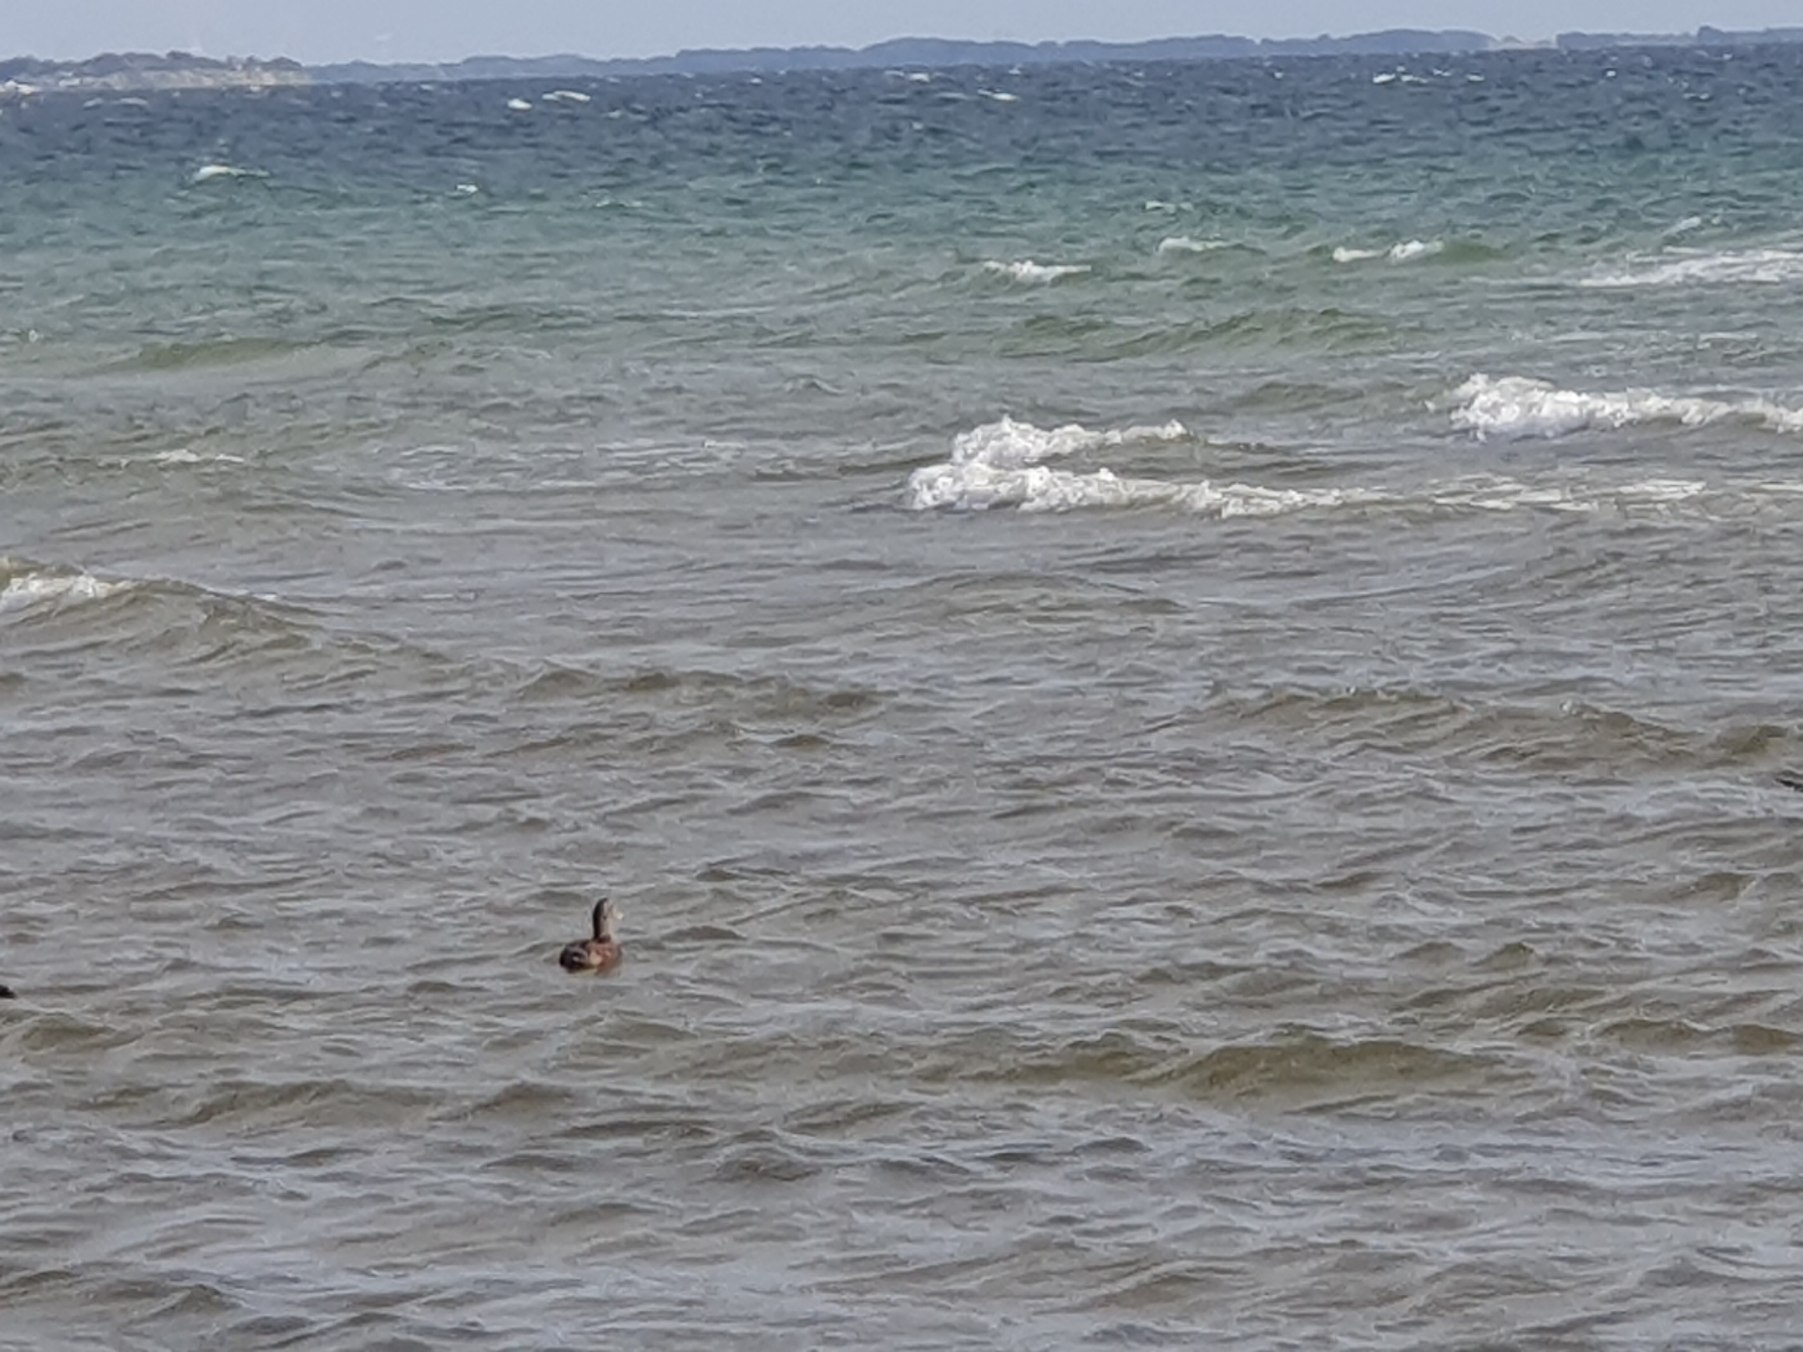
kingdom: Animalia
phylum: Chordata
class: Aves
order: Anseriformes
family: Anatidae
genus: Somateria
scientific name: Somateria mollissima
